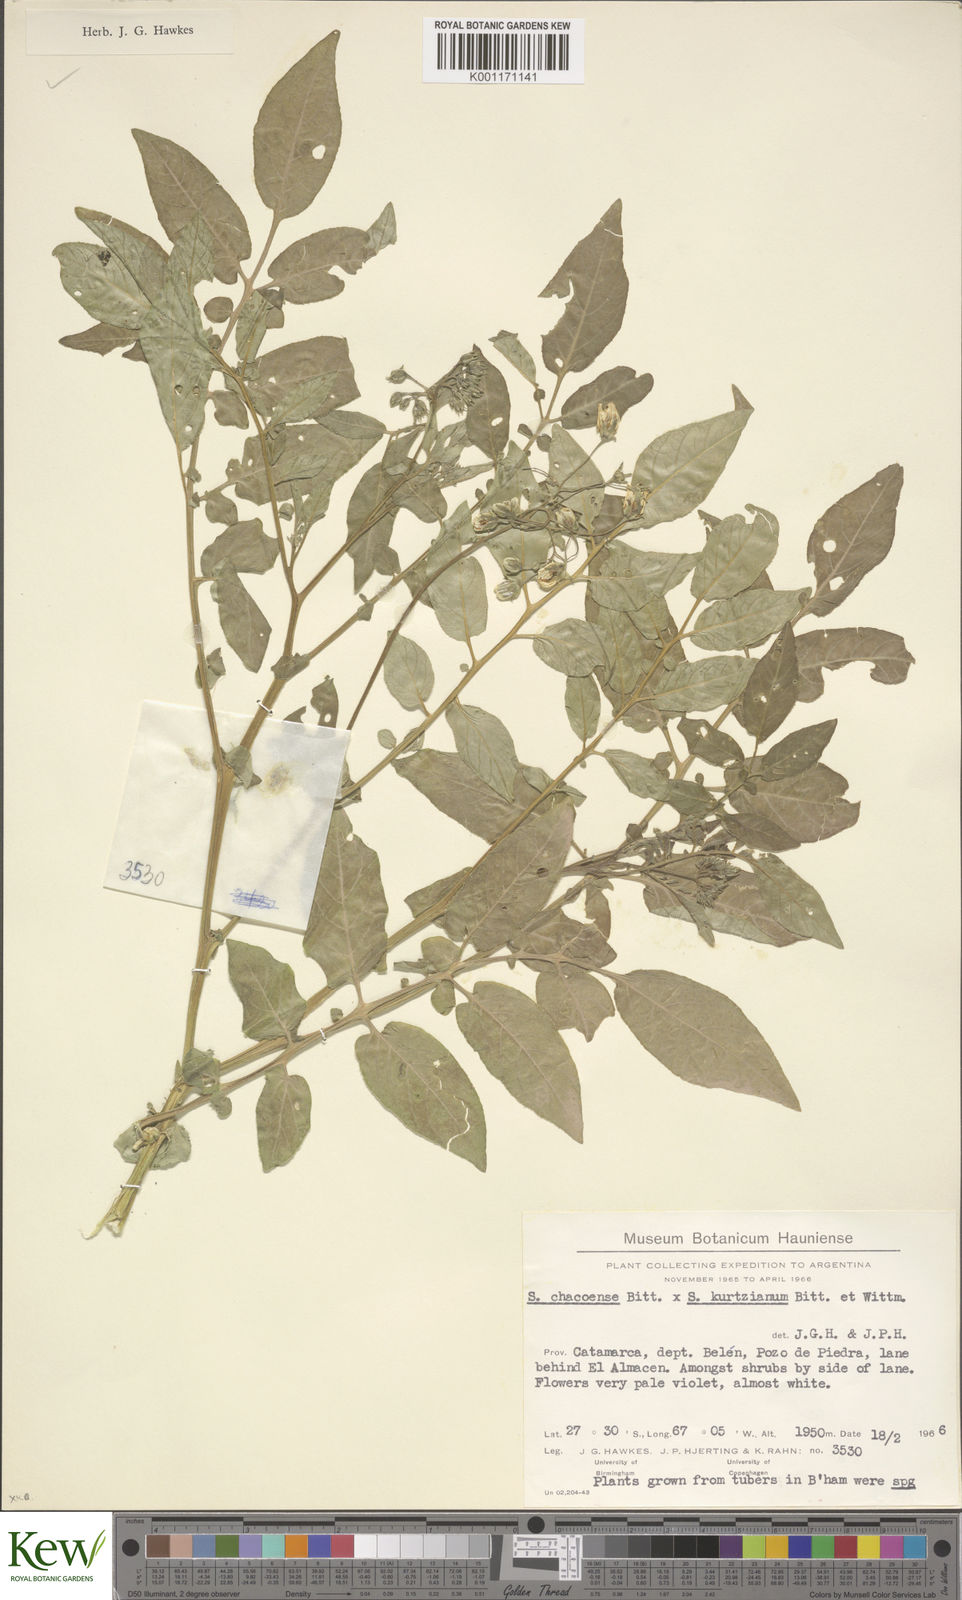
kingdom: Plantae
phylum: Tracheophyta
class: Magnoliopsida
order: Solanales
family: Solanaceae
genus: Solanum
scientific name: Solanum chacoense
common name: Chaco potato
